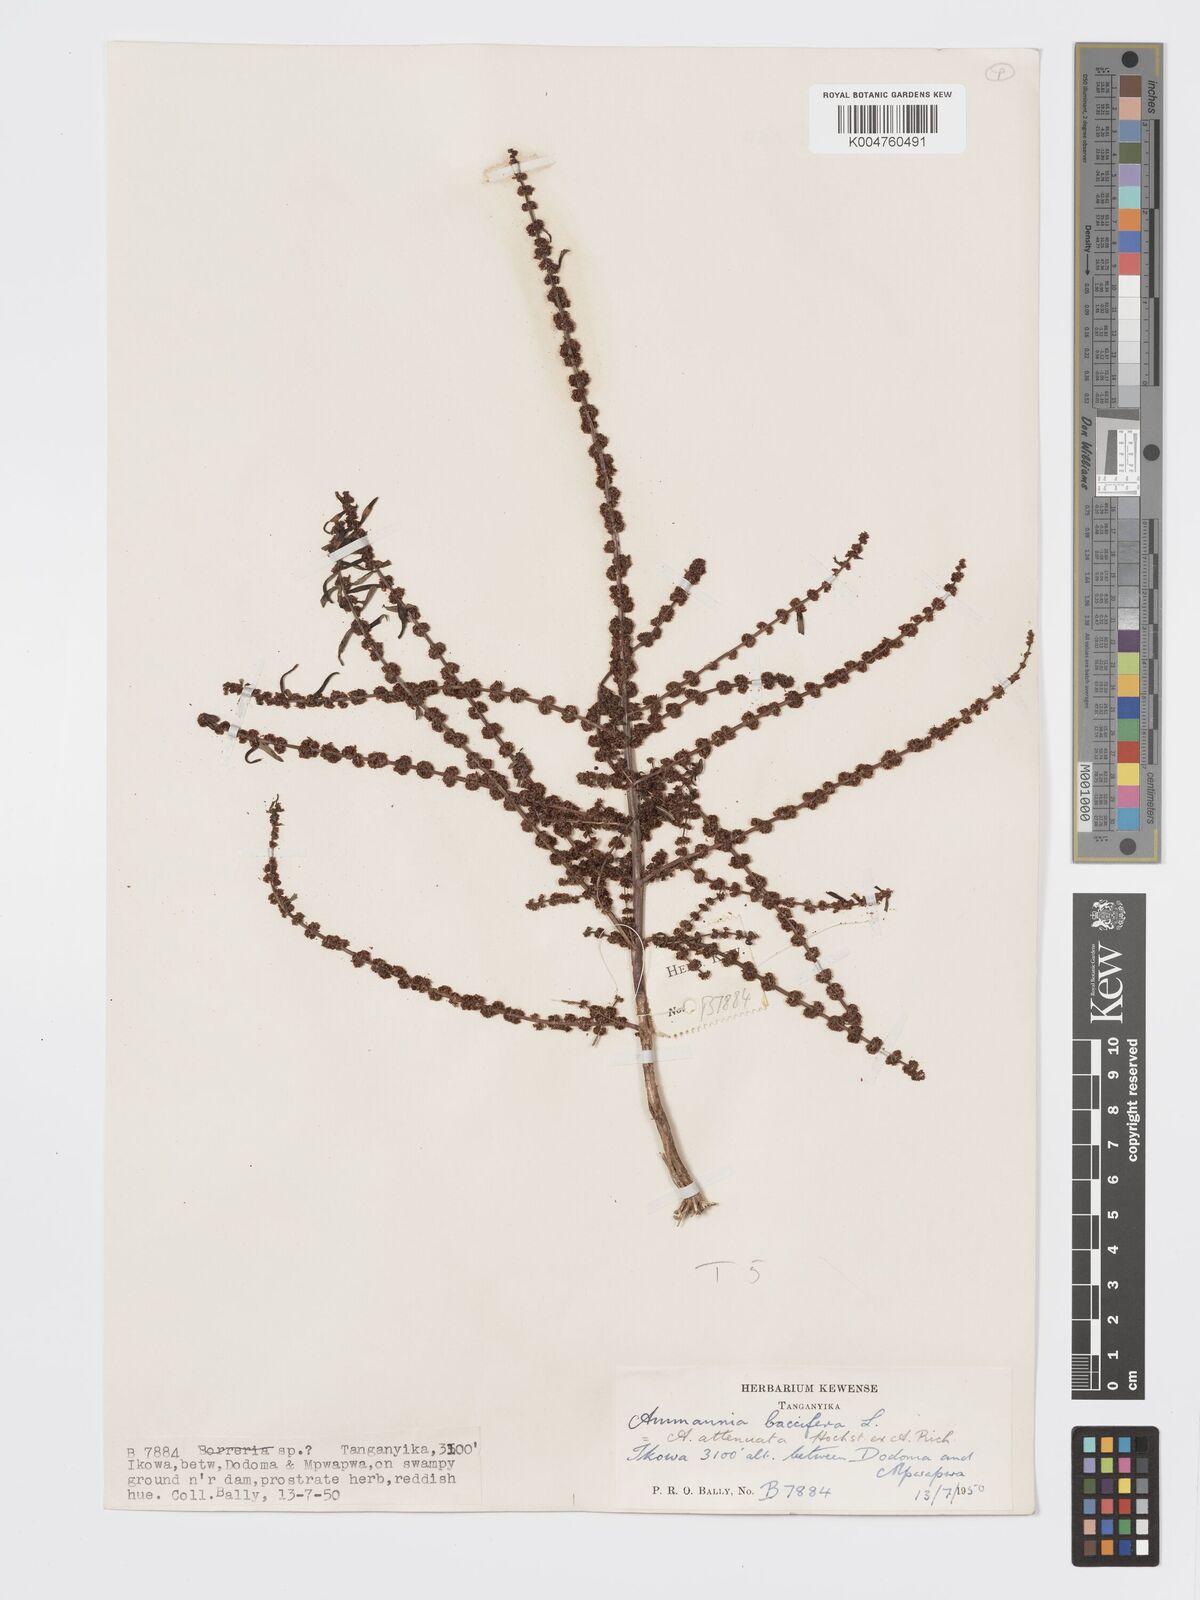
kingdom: Plantae
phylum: Tracheophyta
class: Magnoliopsida
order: Myrtales
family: Lythraceae
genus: Ammannia
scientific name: Ammannia
